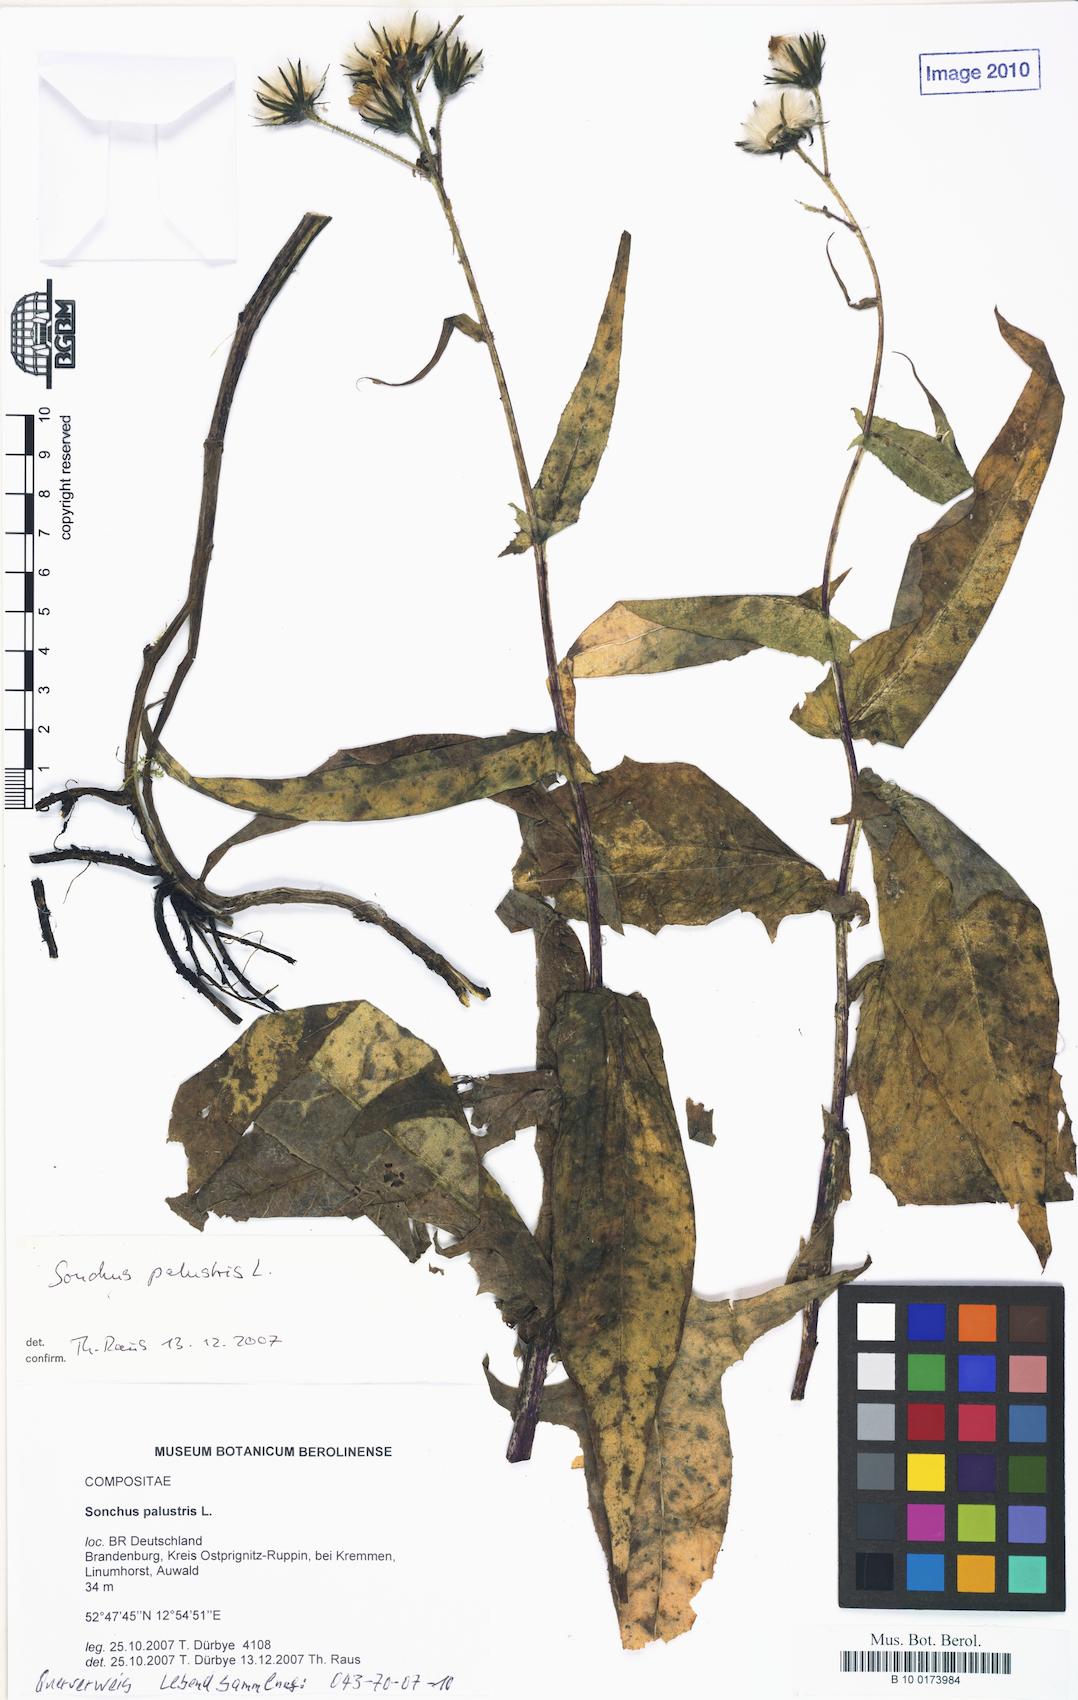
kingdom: Plantae
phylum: Tracheophyta
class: Magnoliopsida
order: Asterales
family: Asteraceae
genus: Sonchus
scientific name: Sonchus palustris
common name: Marsh sow-thistle
